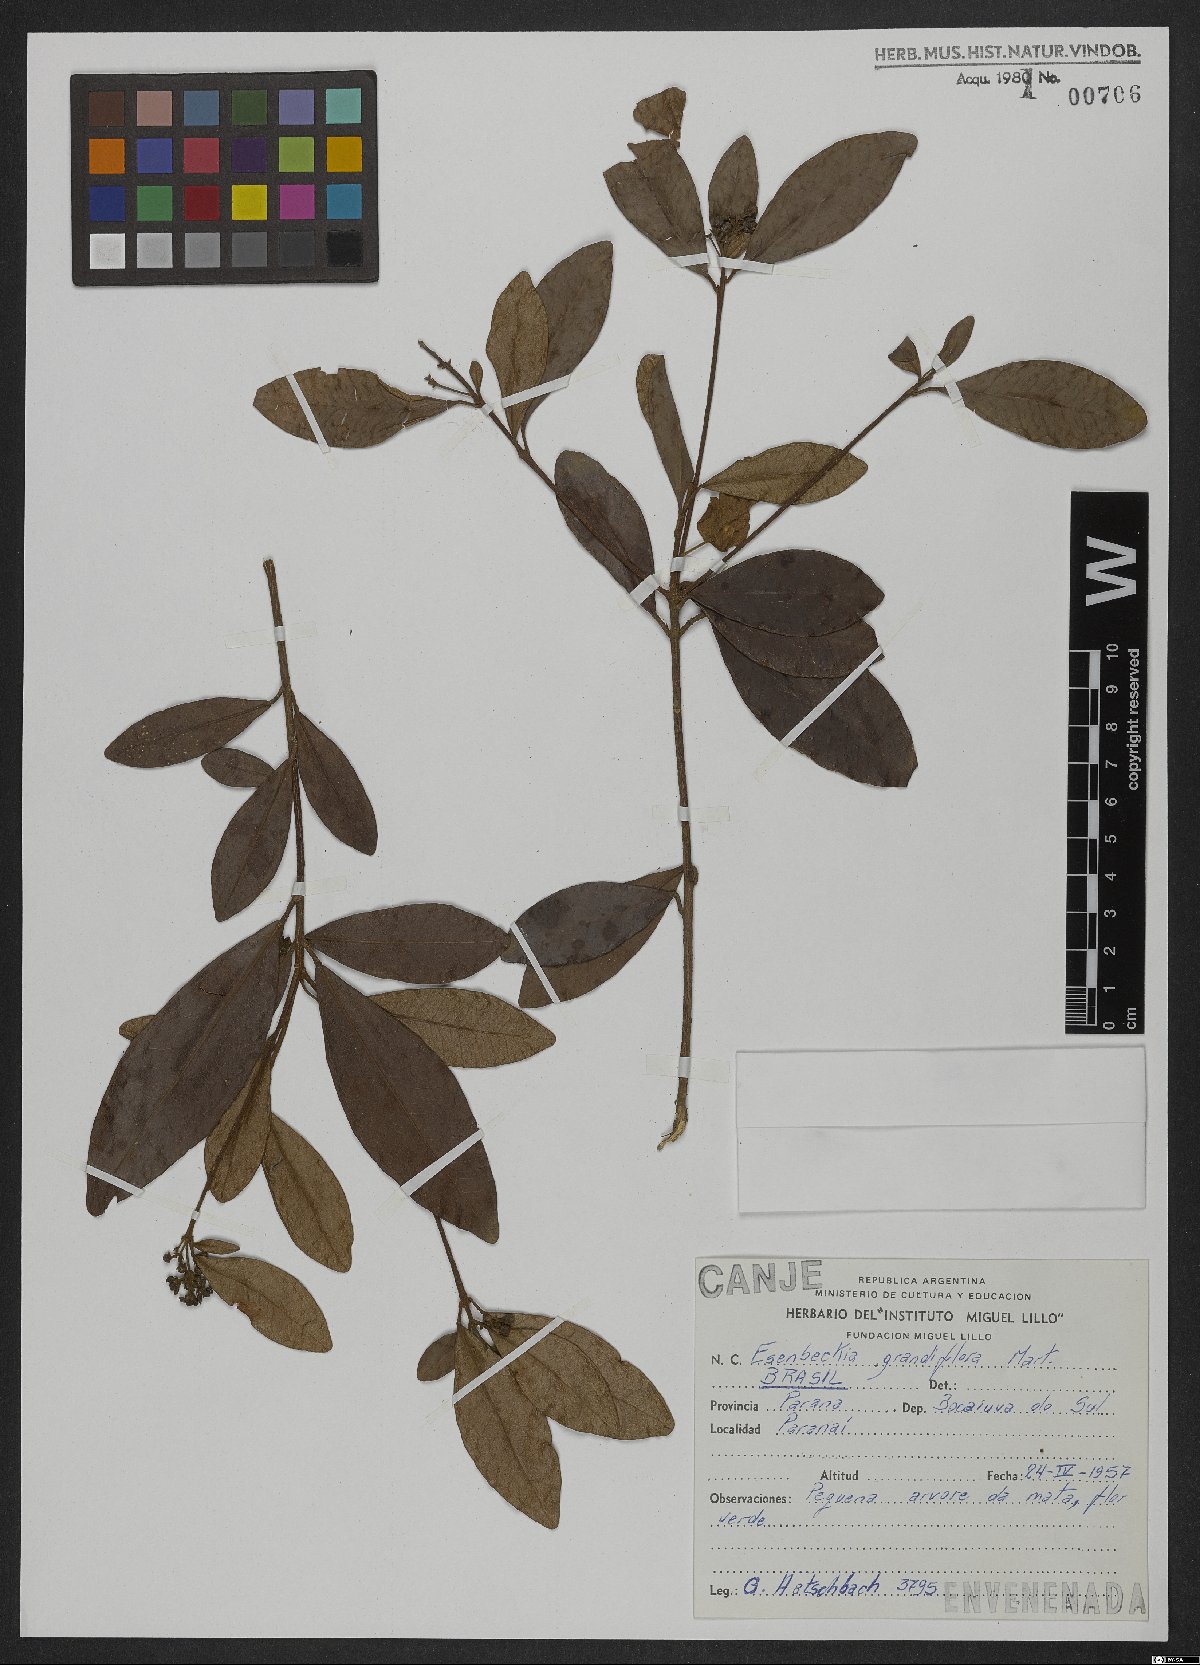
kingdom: Plantae
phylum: Tracheophyta
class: Magnoliopsida
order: Sapindales
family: Rutaceae
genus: Esenbeckia
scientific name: Esenbeckia grandiflora
